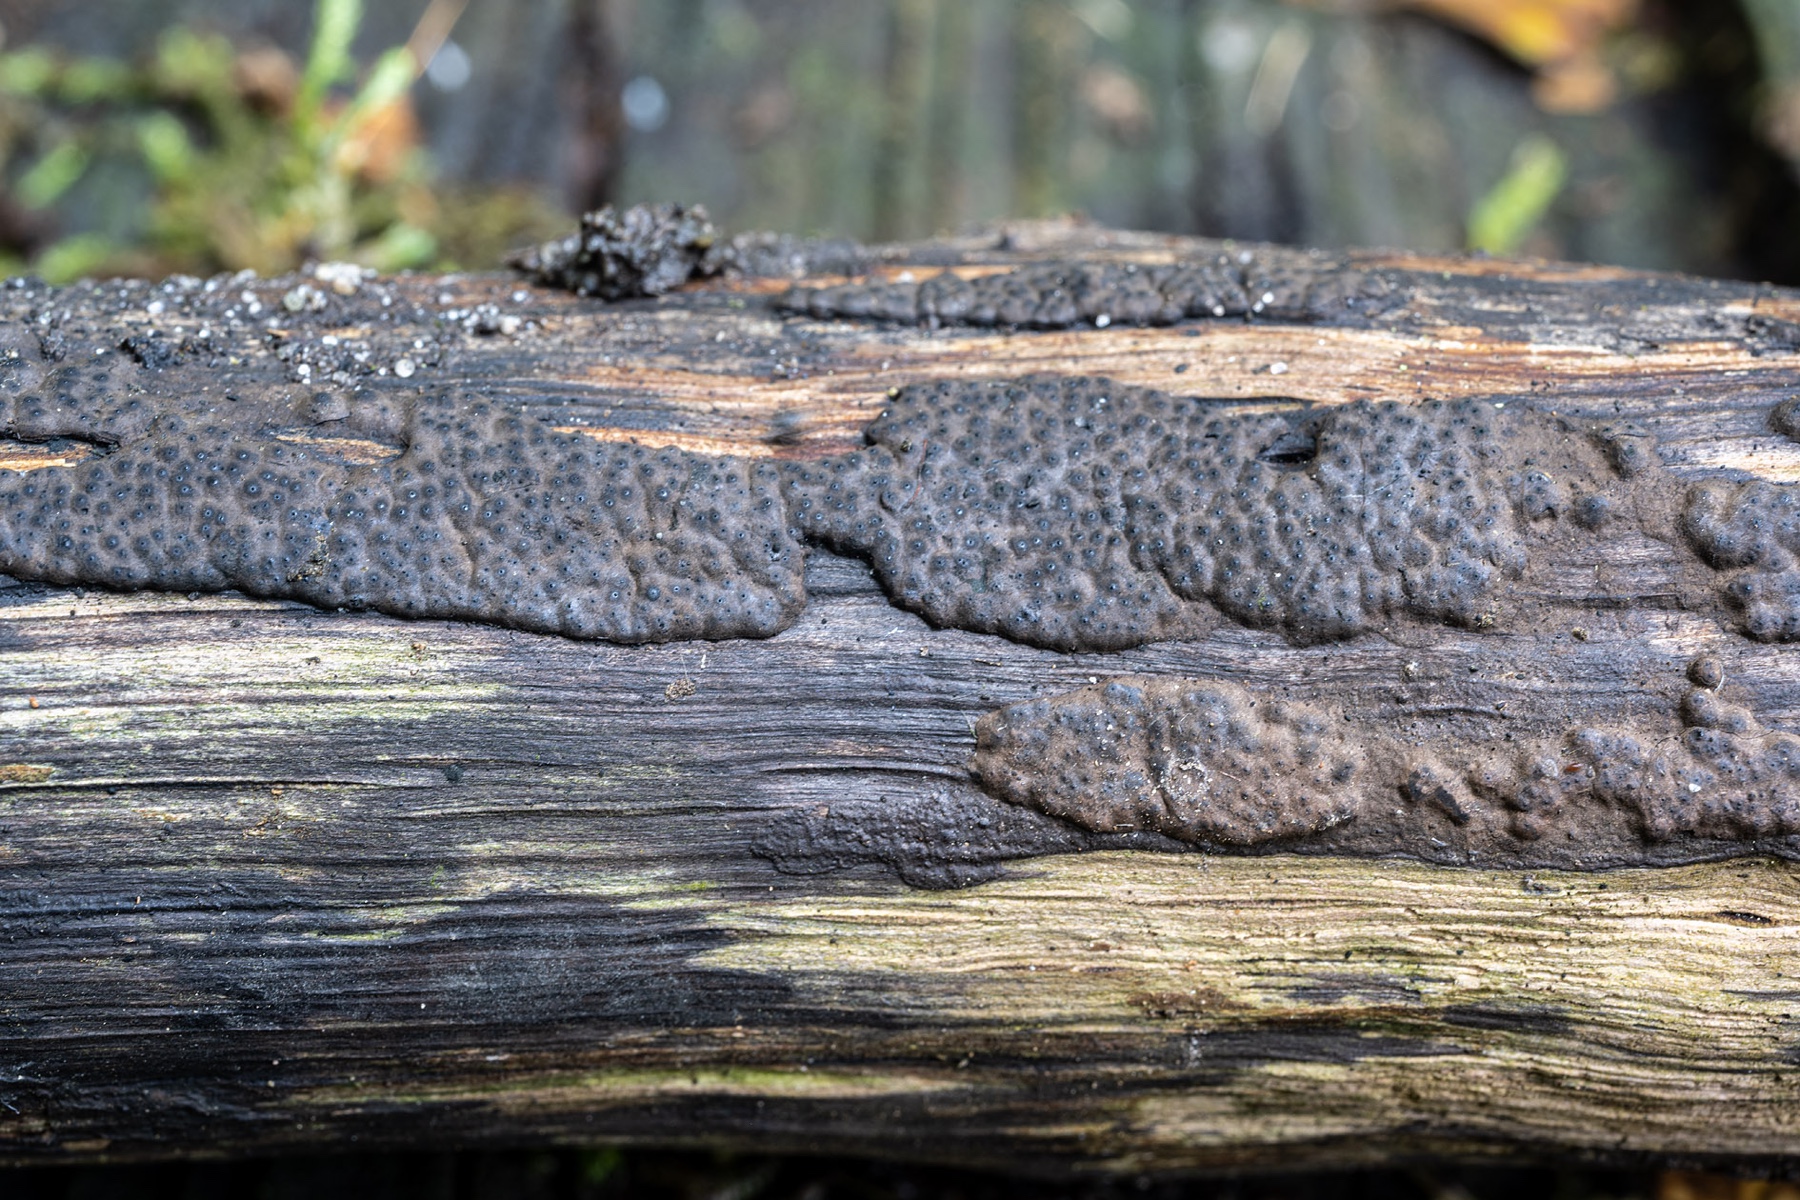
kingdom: Fungi
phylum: Ascomycota
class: Sordariomycetes
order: Xylariales
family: Xylariaceae
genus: Nemania
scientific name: Nemania diffusa
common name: brun kuldyne
